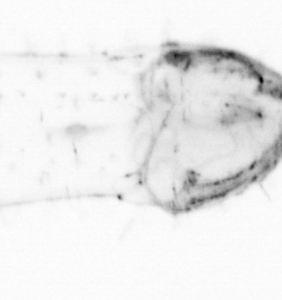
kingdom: Animalia
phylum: Chaetognatha
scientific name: Chaetognatha
